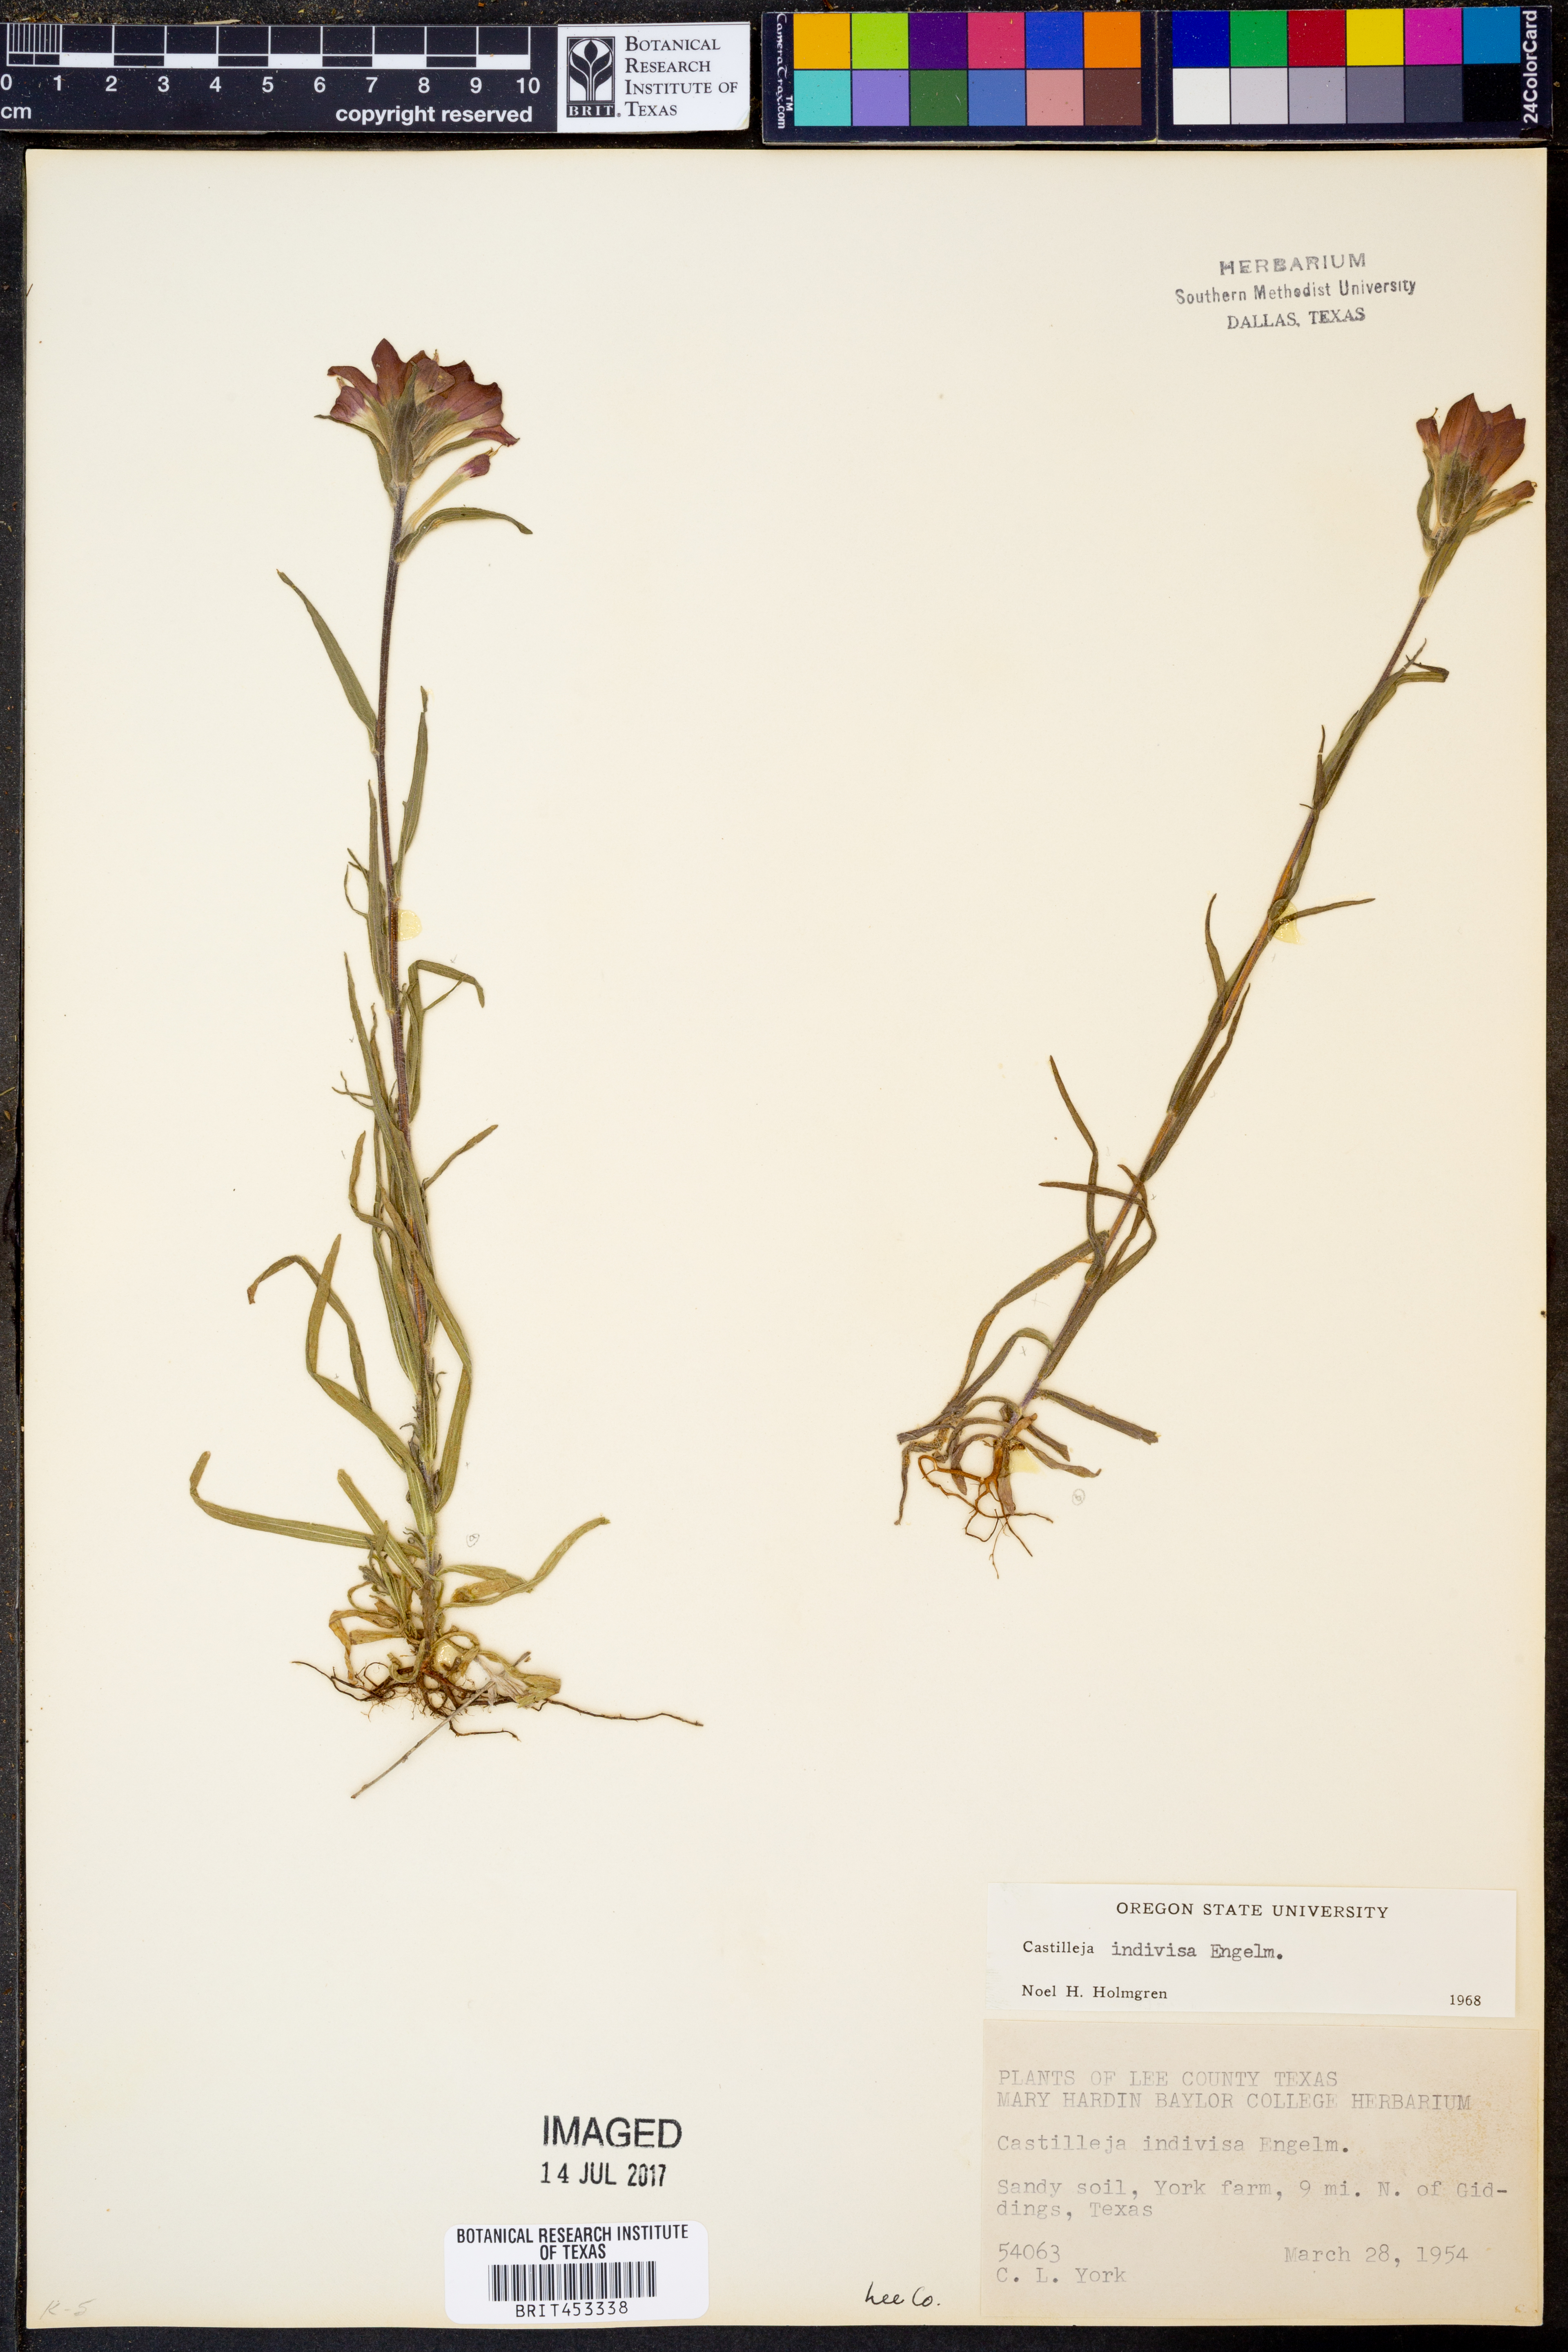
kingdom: Plantae
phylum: Tracheophyta
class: Magnoliopsida
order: Lamiales
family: Orobanchaceae
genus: Castilleja
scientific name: Castilleja indivisa
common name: Texas paintbrush
